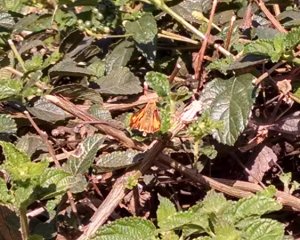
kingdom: Animalia
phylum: Arthropoda
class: Insecta
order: Lepidoptera
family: Hesperiidae
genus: Hylephila
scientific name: Hylephila phyleus
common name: Fiery Skipper
